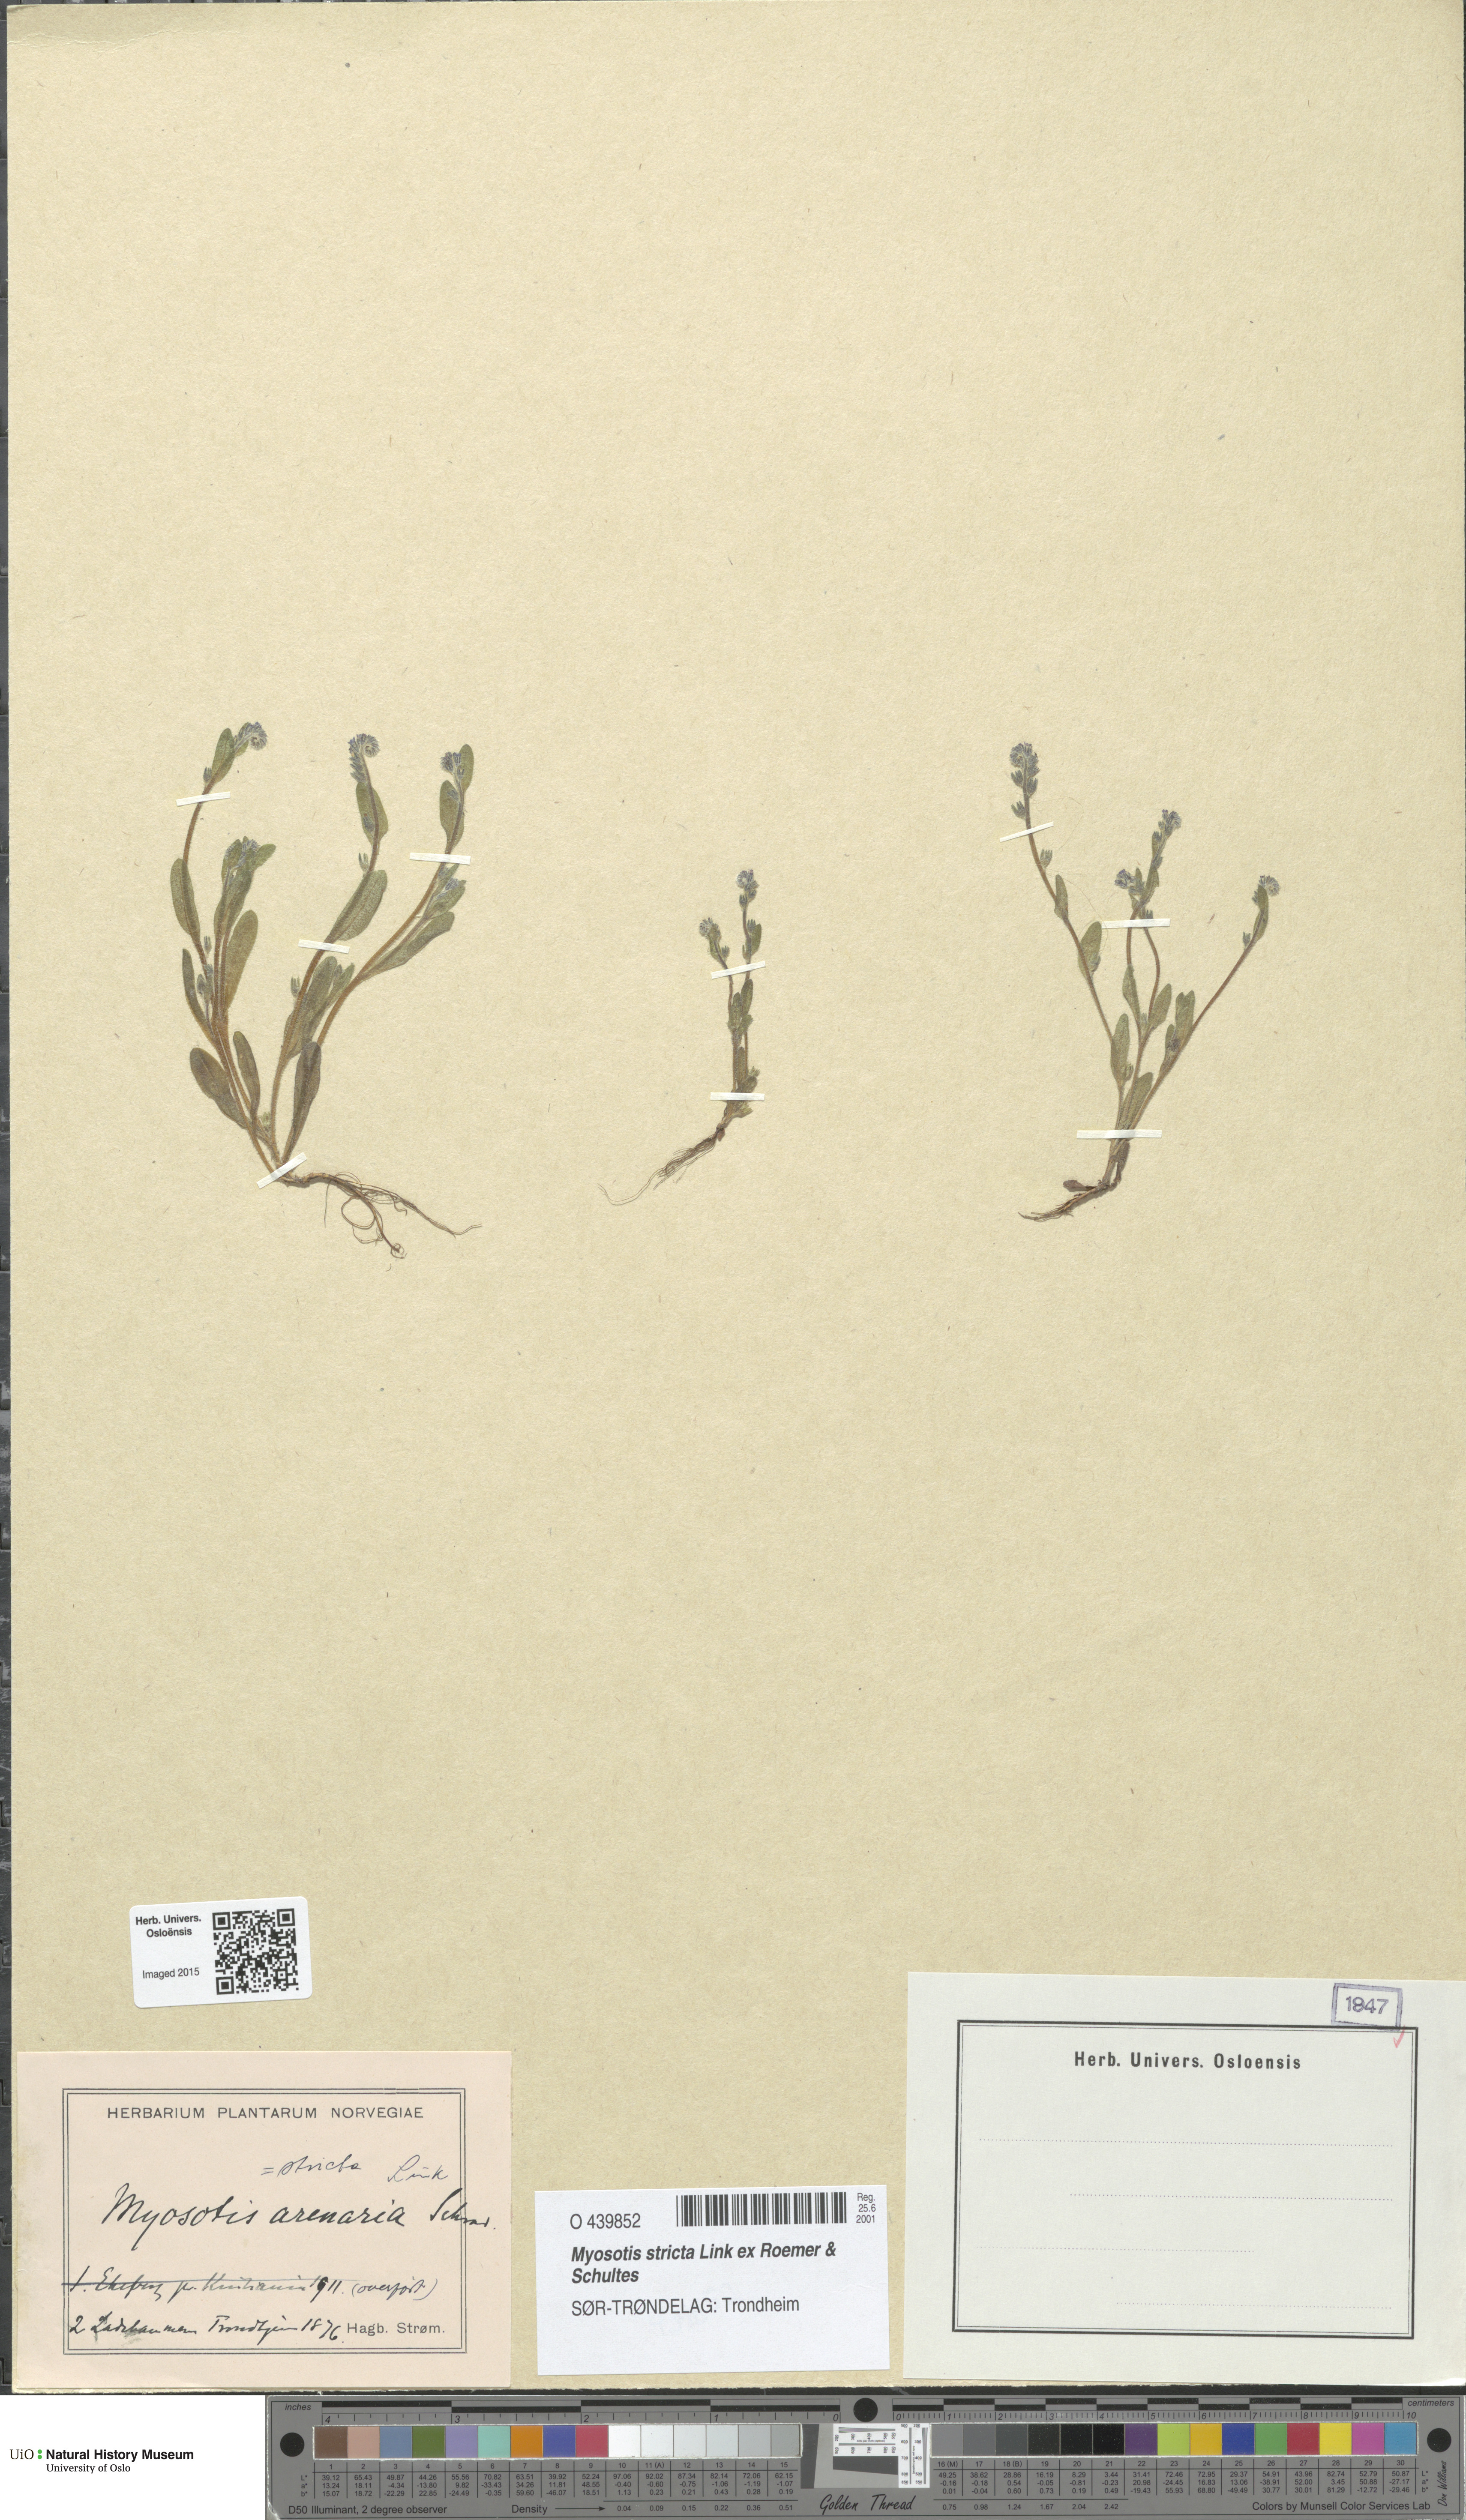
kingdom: Plantae
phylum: Tracheophyta
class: Magnoliopsida
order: Boraginales
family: Boraginaceae
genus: Myosotis
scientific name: Myosotis stricta
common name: Strict forget-me-not
